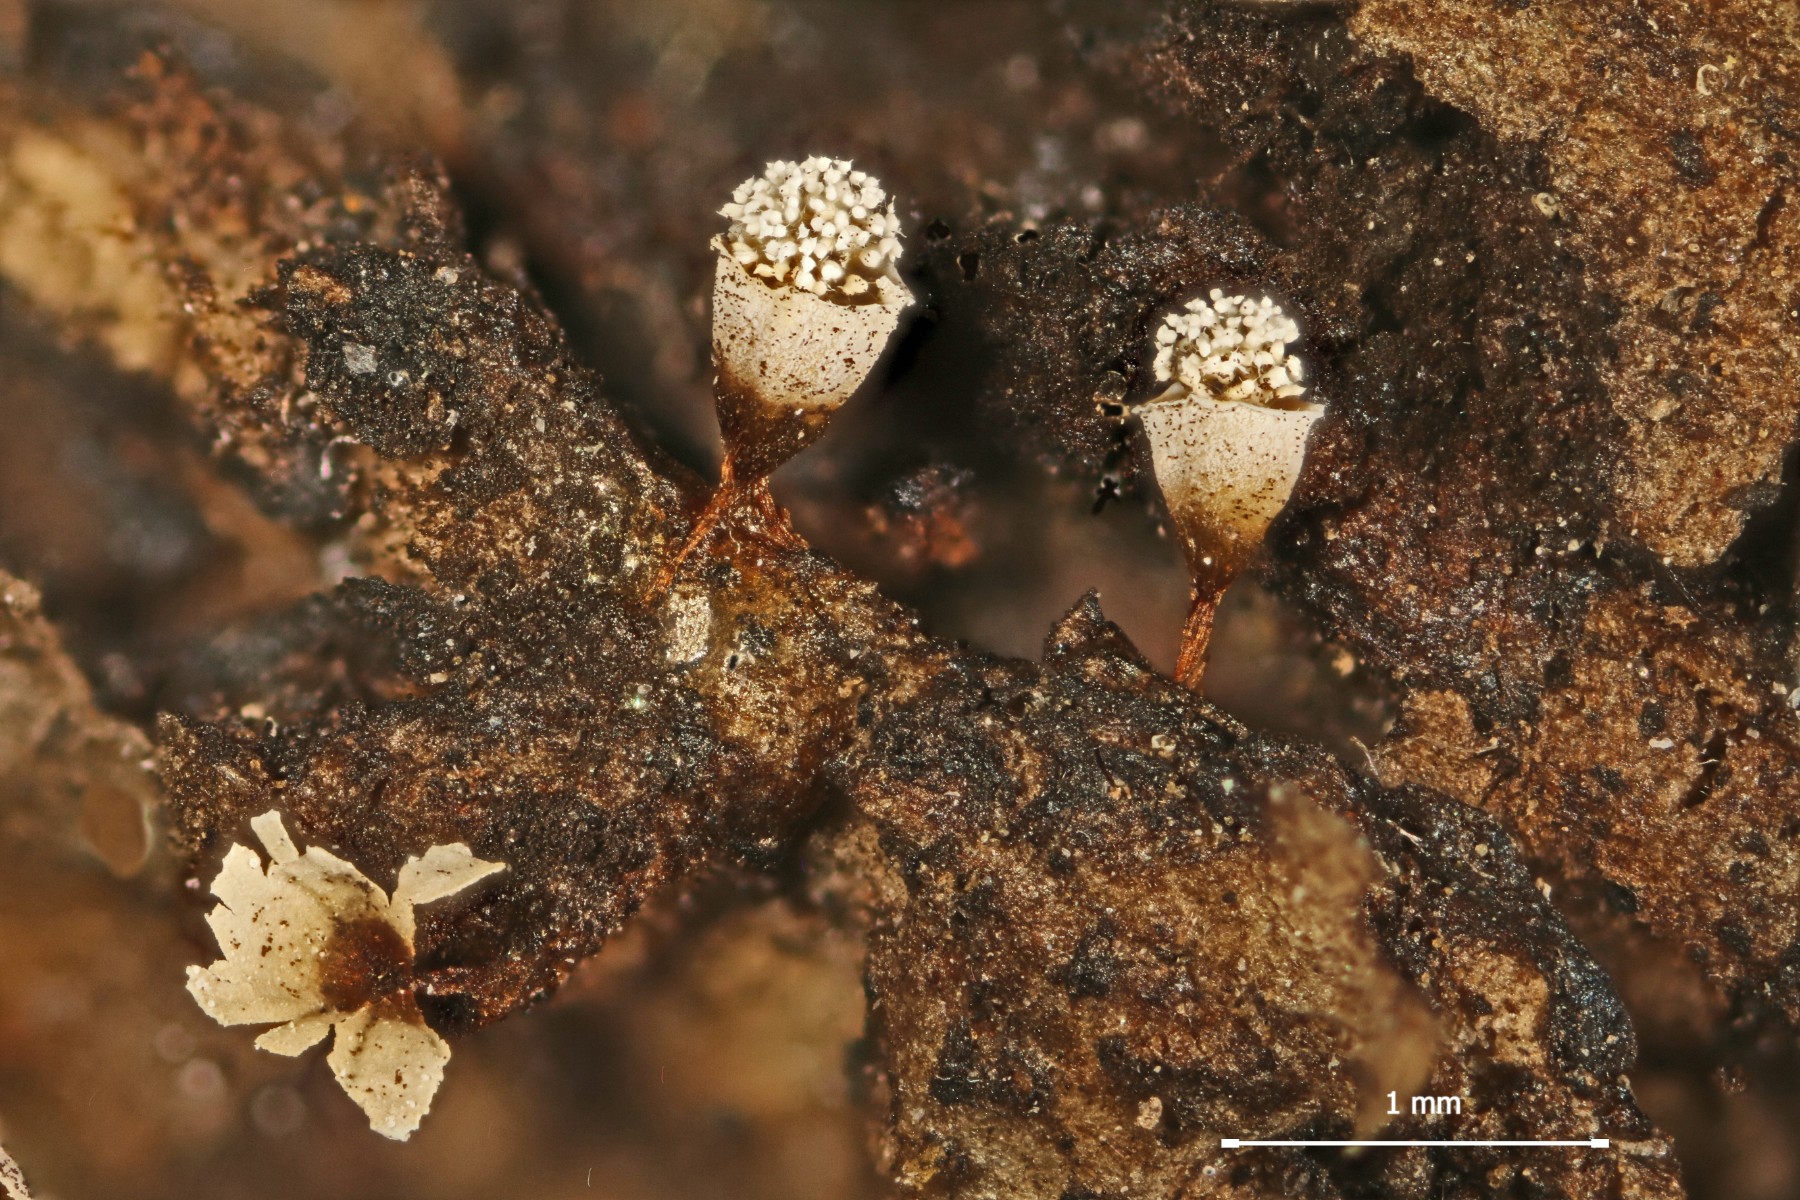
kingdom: Protozoa
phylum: Mycetozoa
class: Myxomycetes
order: Physarales
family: Physaraceae
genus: Craterium
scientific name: Craterium leucocephalum
